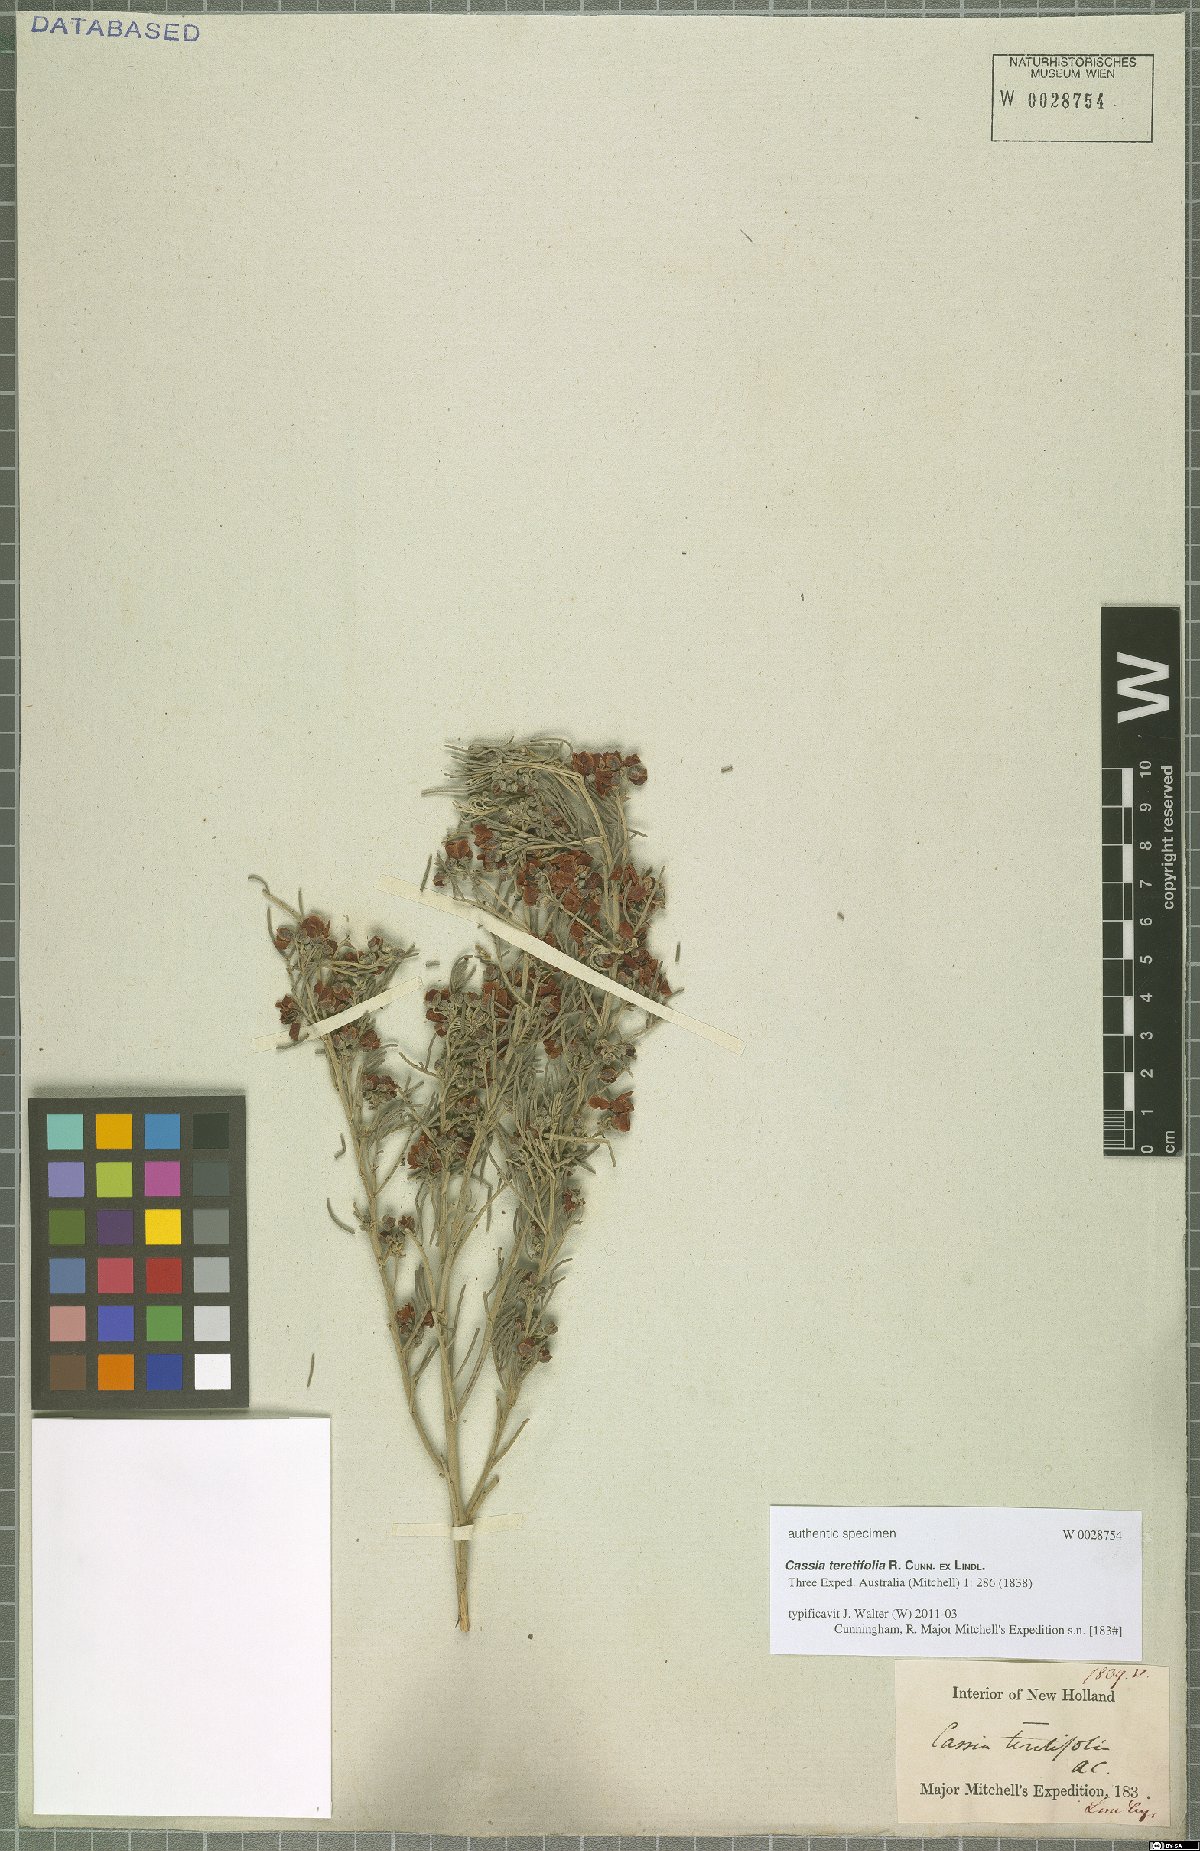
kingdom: Plantae
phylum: Tracheophyta
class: Magnoliopsida
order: Fabales
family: Fabaceae
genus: Senna
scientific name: Senna artemisioides
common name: Burnt-leaved acacia
